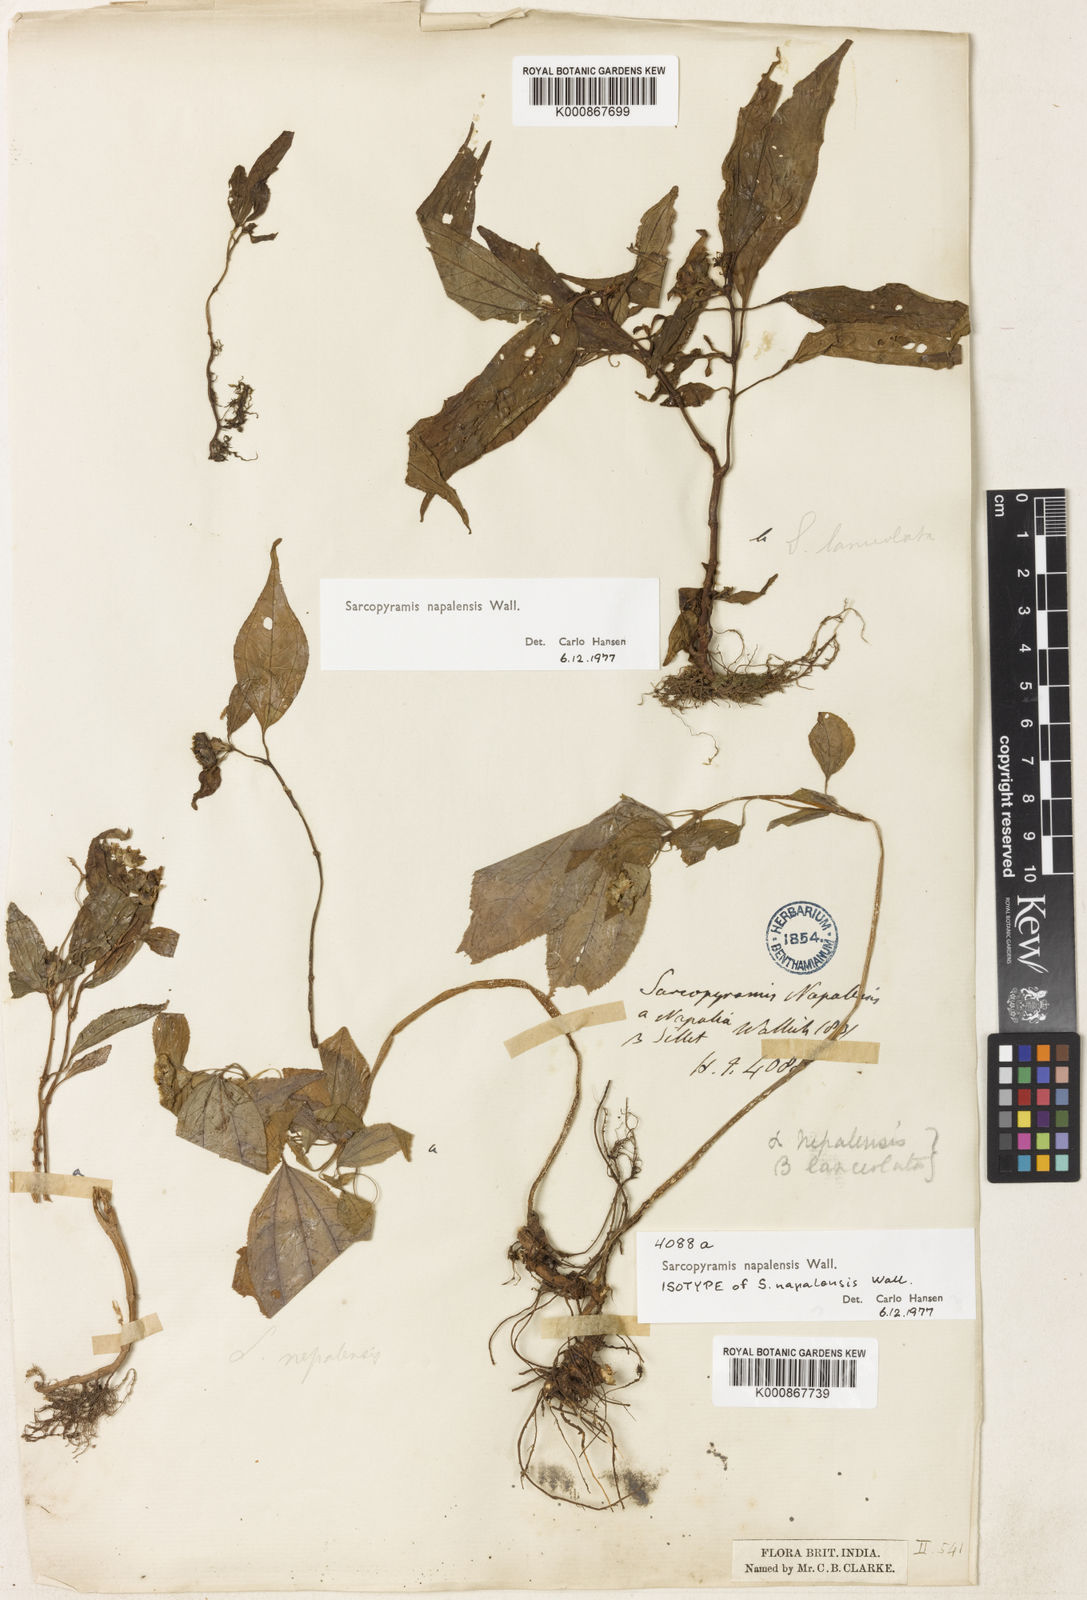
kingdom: Plantae
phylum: Tracheophyta
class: Magnoliopsida
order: Myrtales
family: Melastomataceae
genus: Sarcopyramis
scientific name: Sarcopyramis napalensis
